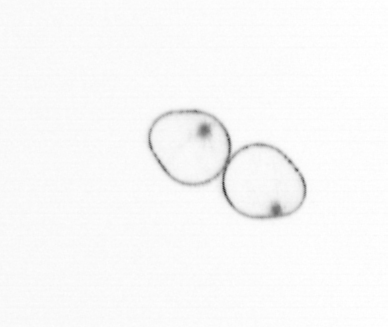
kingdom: Chromista
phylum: Myzozoa
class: Dinophyceae
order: Noctilucales
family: Noctilucaceae
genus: Noctiluca
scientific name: Noctiluca scintillans
